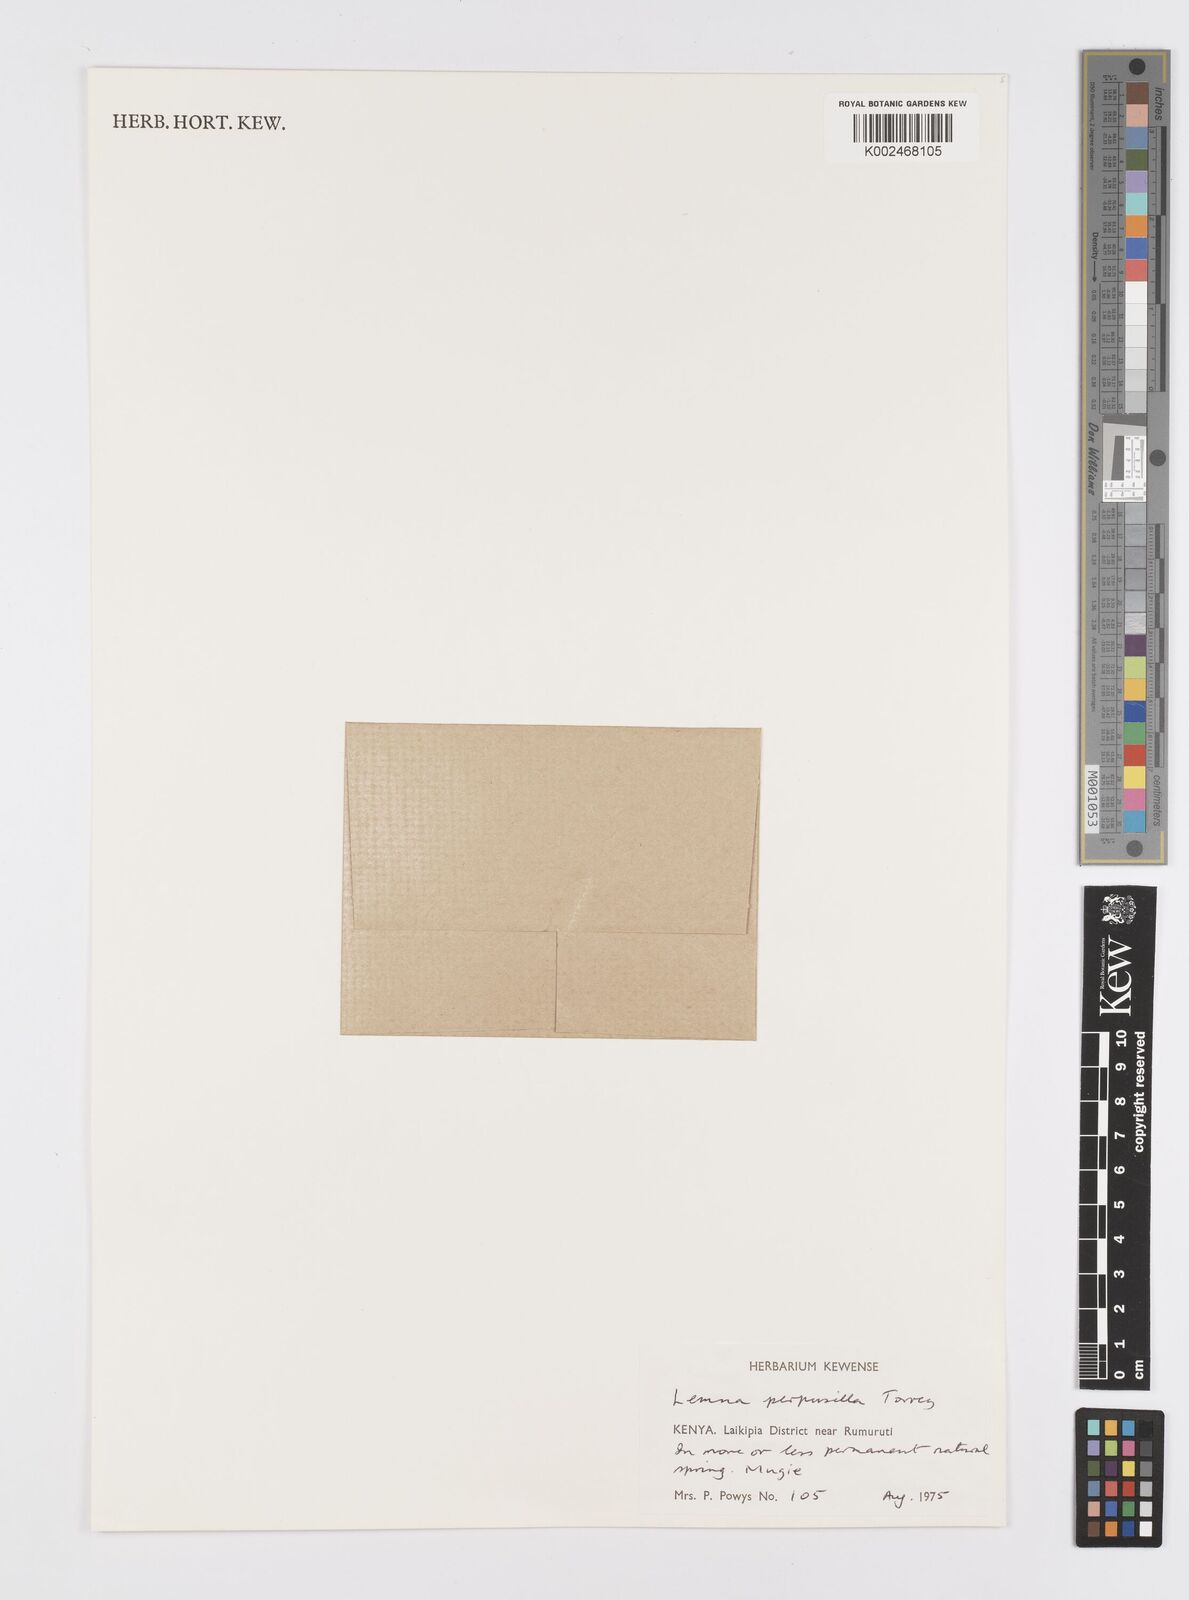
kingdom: Plantae
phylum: Tracheophyta
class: Liliopsida
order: Alismatales
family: Araceae
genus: Lemna
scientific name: Lemna perpusilla
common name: Duckweed
